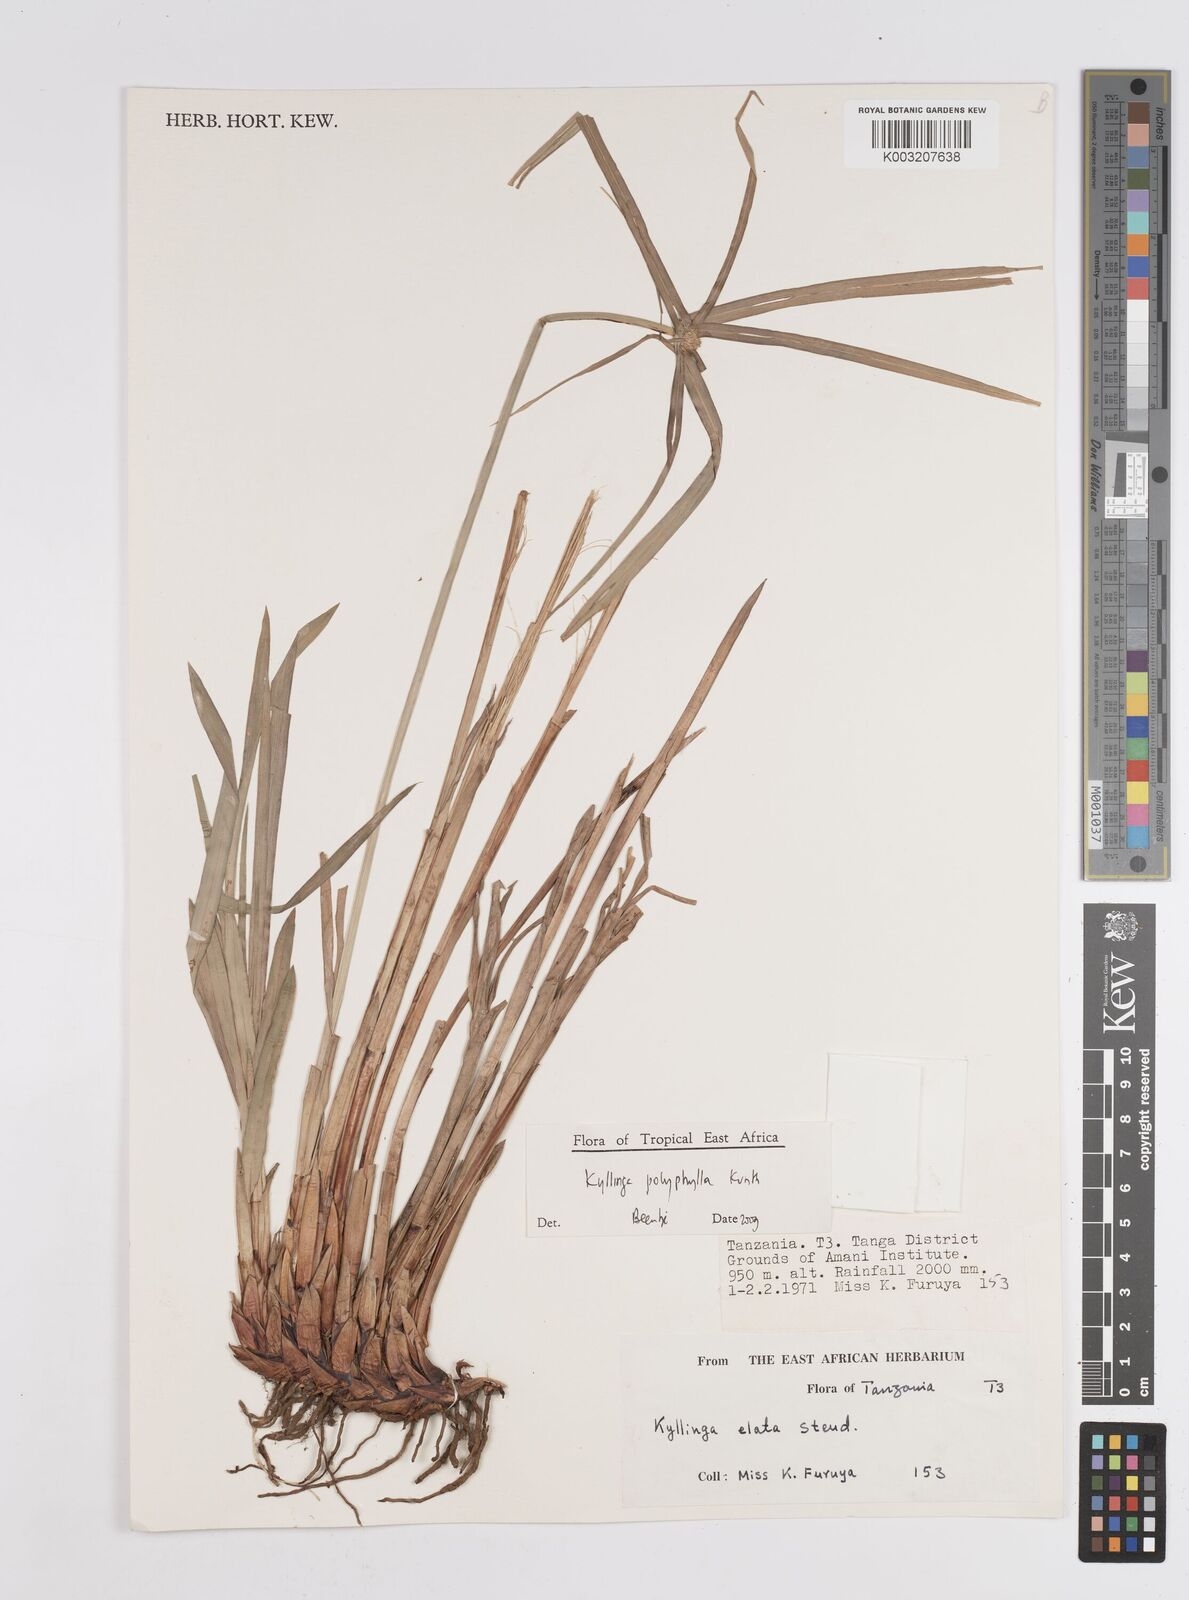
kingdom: Plantae
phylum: Tracheophyta
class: Liliopsida
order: Poales
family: Cyperaceae
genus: Cyperus
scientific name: Cyperus
